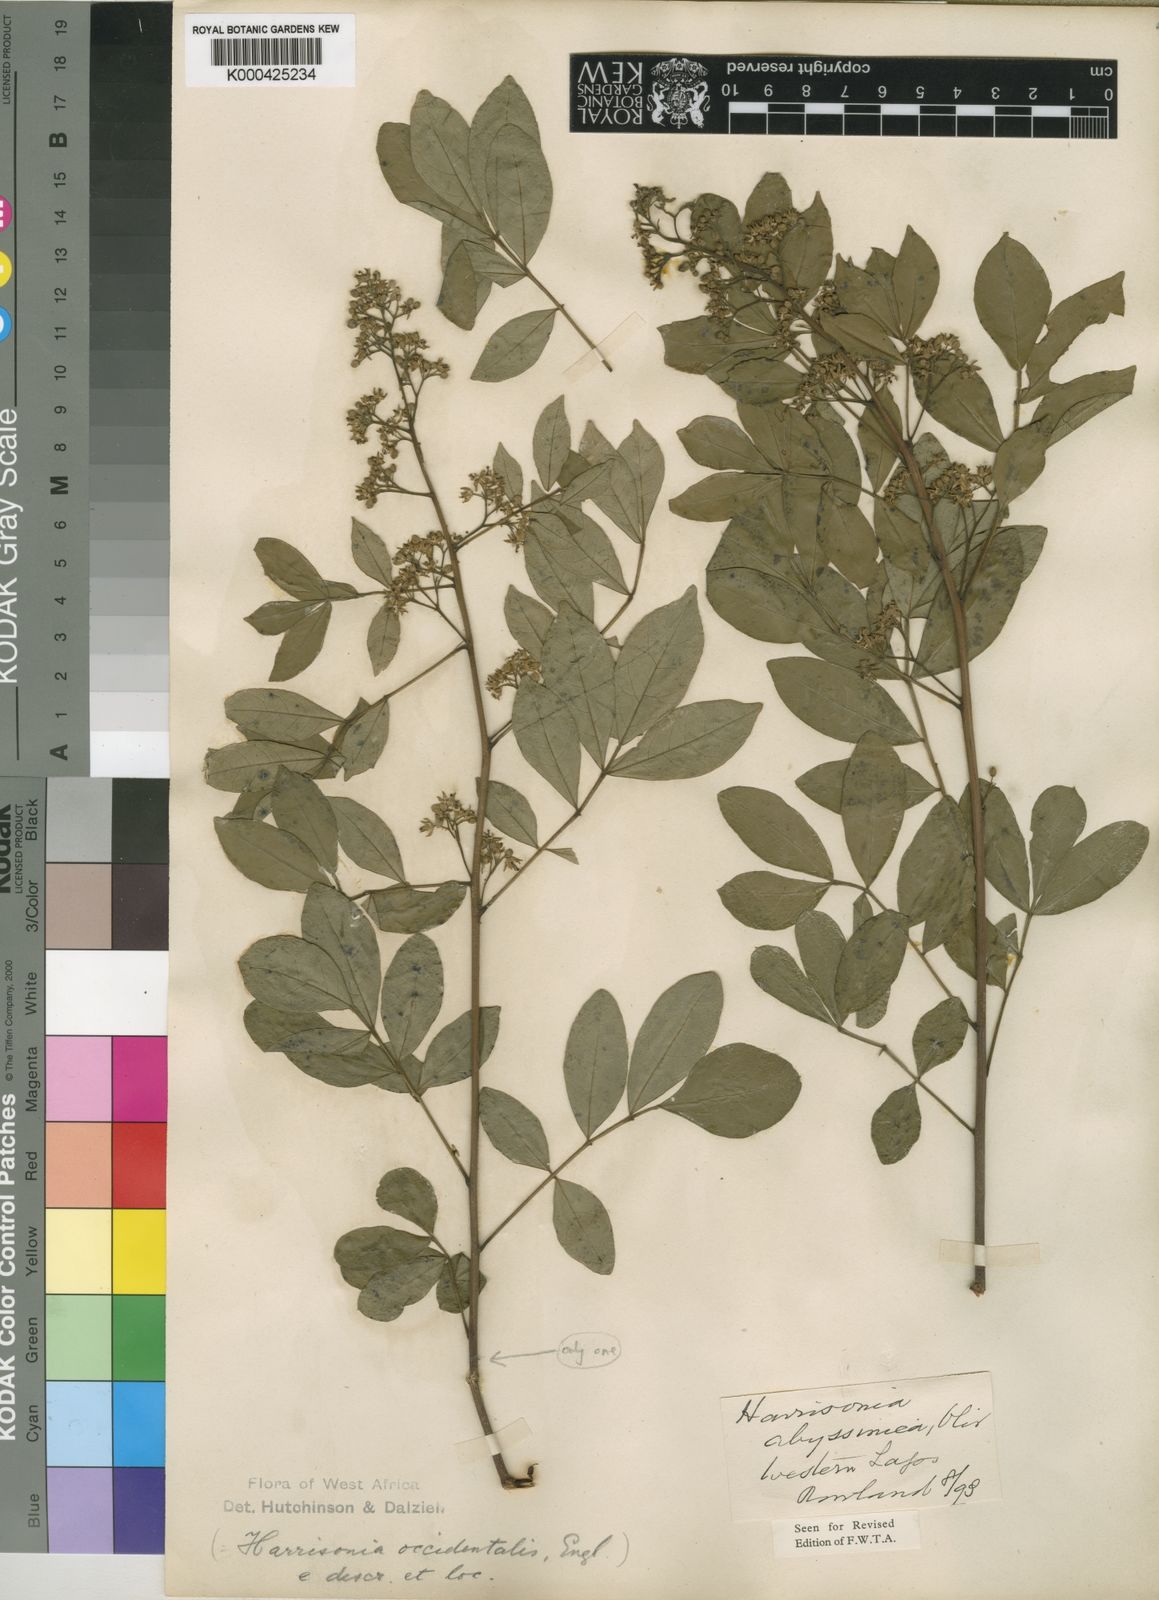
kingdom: Plantae
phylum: Tracheophyta
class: Magnoliopsida
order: Sapindales
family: Rutaceae
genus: Harrisonia
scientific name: Harrisonia abyssinica
